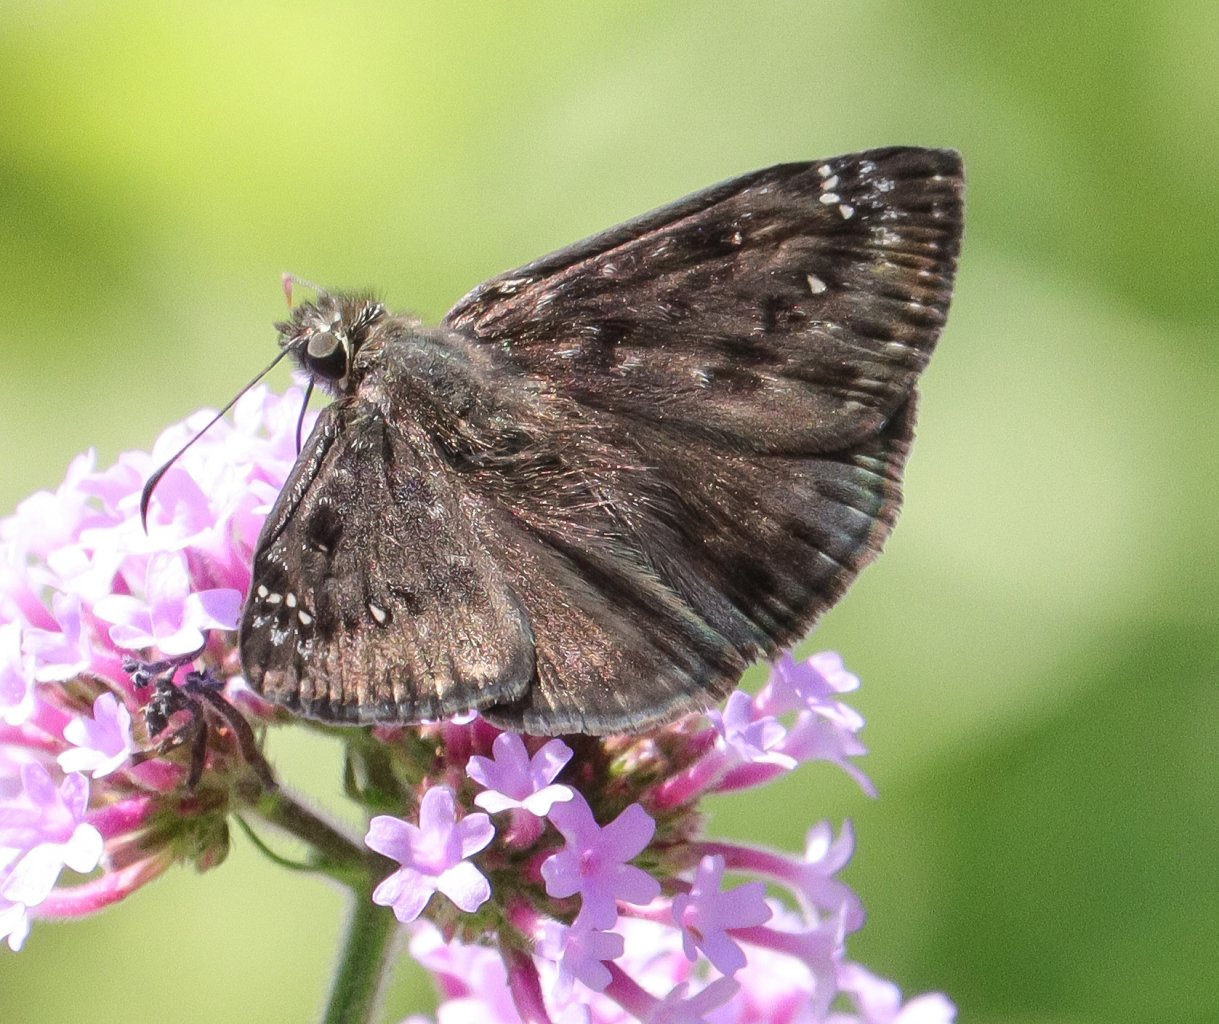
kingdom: Animalia
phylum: Arthropoda
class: Insecta
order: Lepidoptera
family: Hesperiidae
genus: Gesta
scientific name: Gesta
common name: Wild Indigo Duskywing
